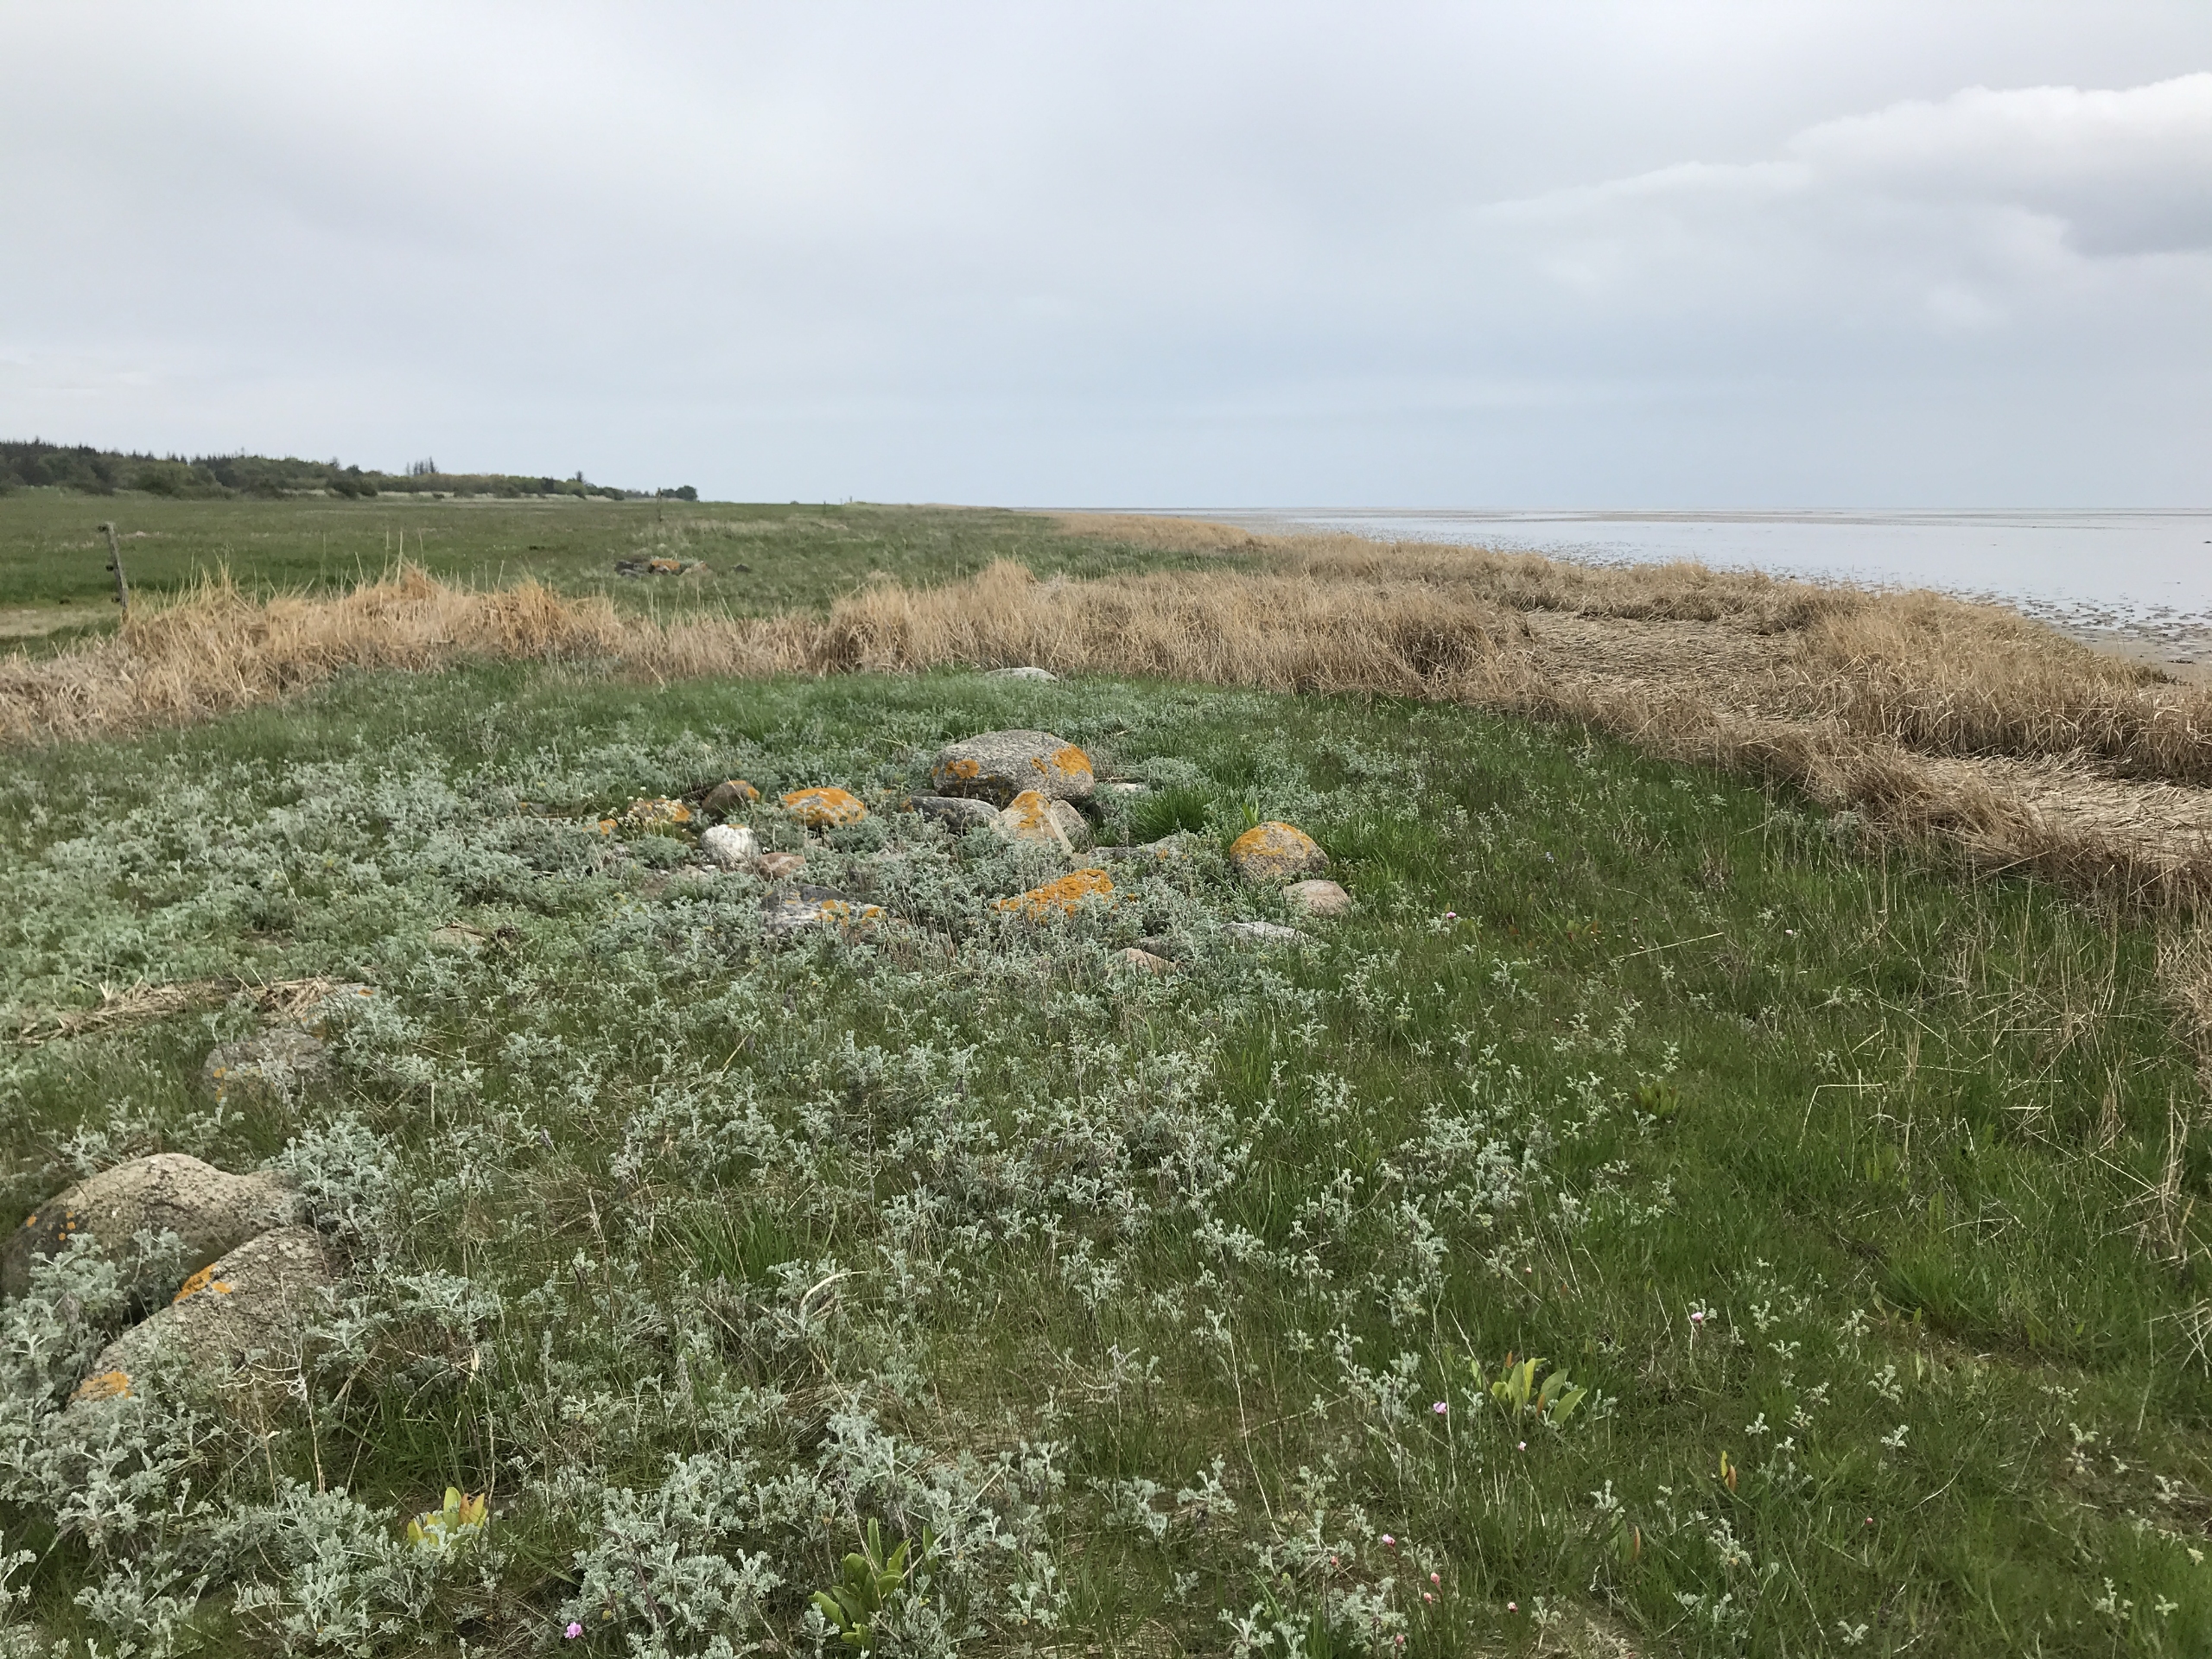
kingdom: Plantae
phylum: Tracheophyta
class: Magnoliopsida
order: Asterales
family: Asteraceae
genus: Artemisia
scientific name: Artemisia maritima
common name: Strandmalurt
